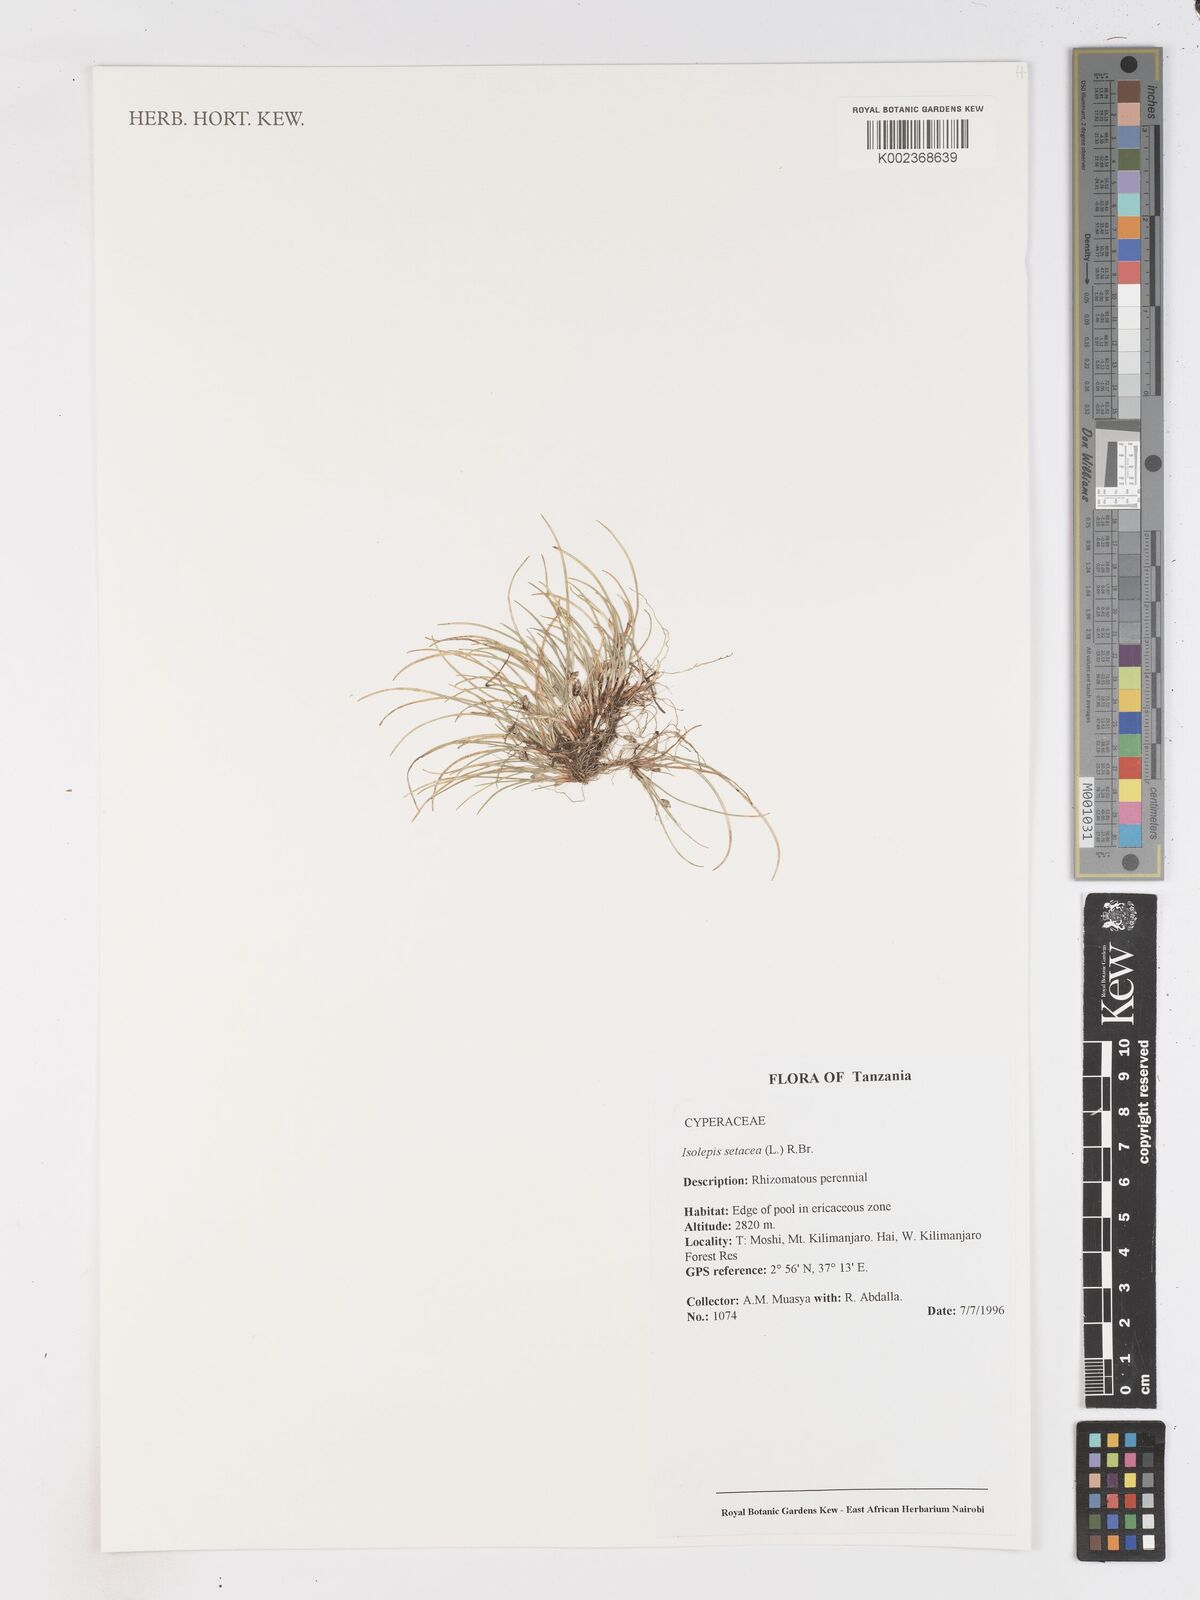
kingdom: Plantae
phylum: Tracheophyta
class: Liliopsida
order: Poales
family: Cyperaceae
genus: Isolepis
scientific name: Isolepis setacea
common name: Bristle club-rush
